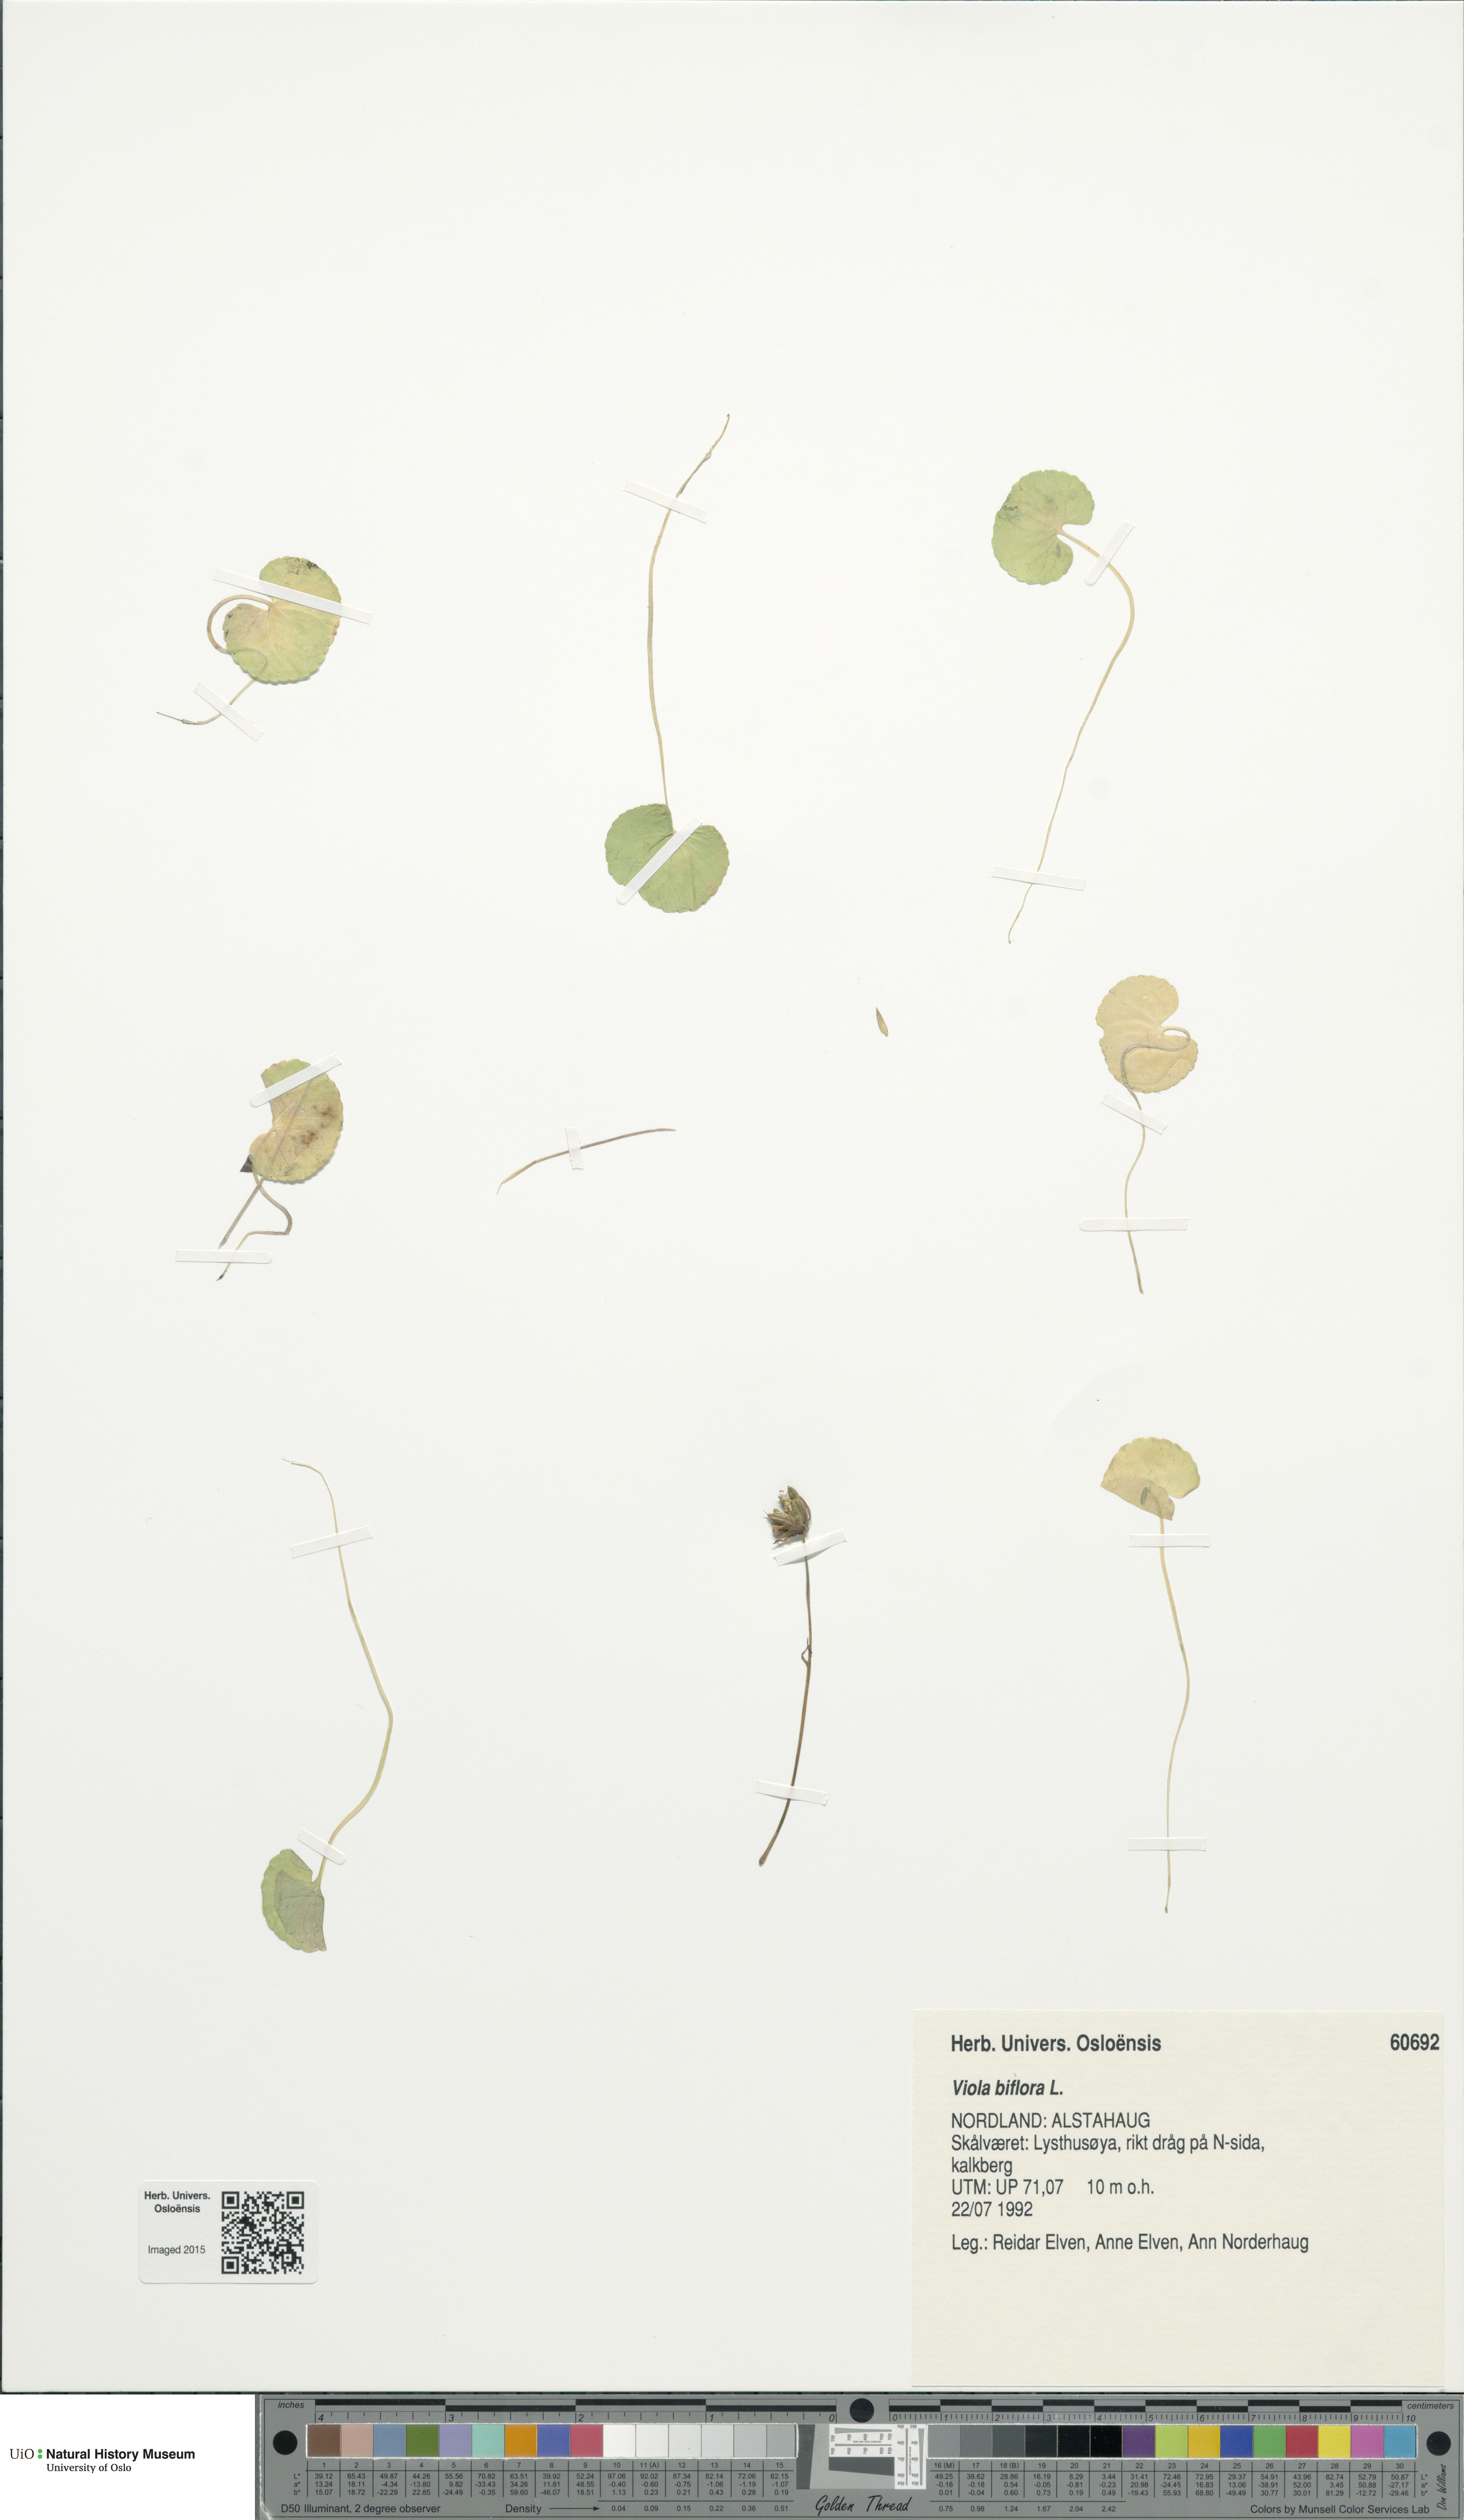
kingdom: Plantae
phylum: Tracheophyta
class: Magnoliopsida
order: Malpighiales
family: Violaceae
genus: Viola
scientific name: Viola biflora
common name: Alpine yellow violet
